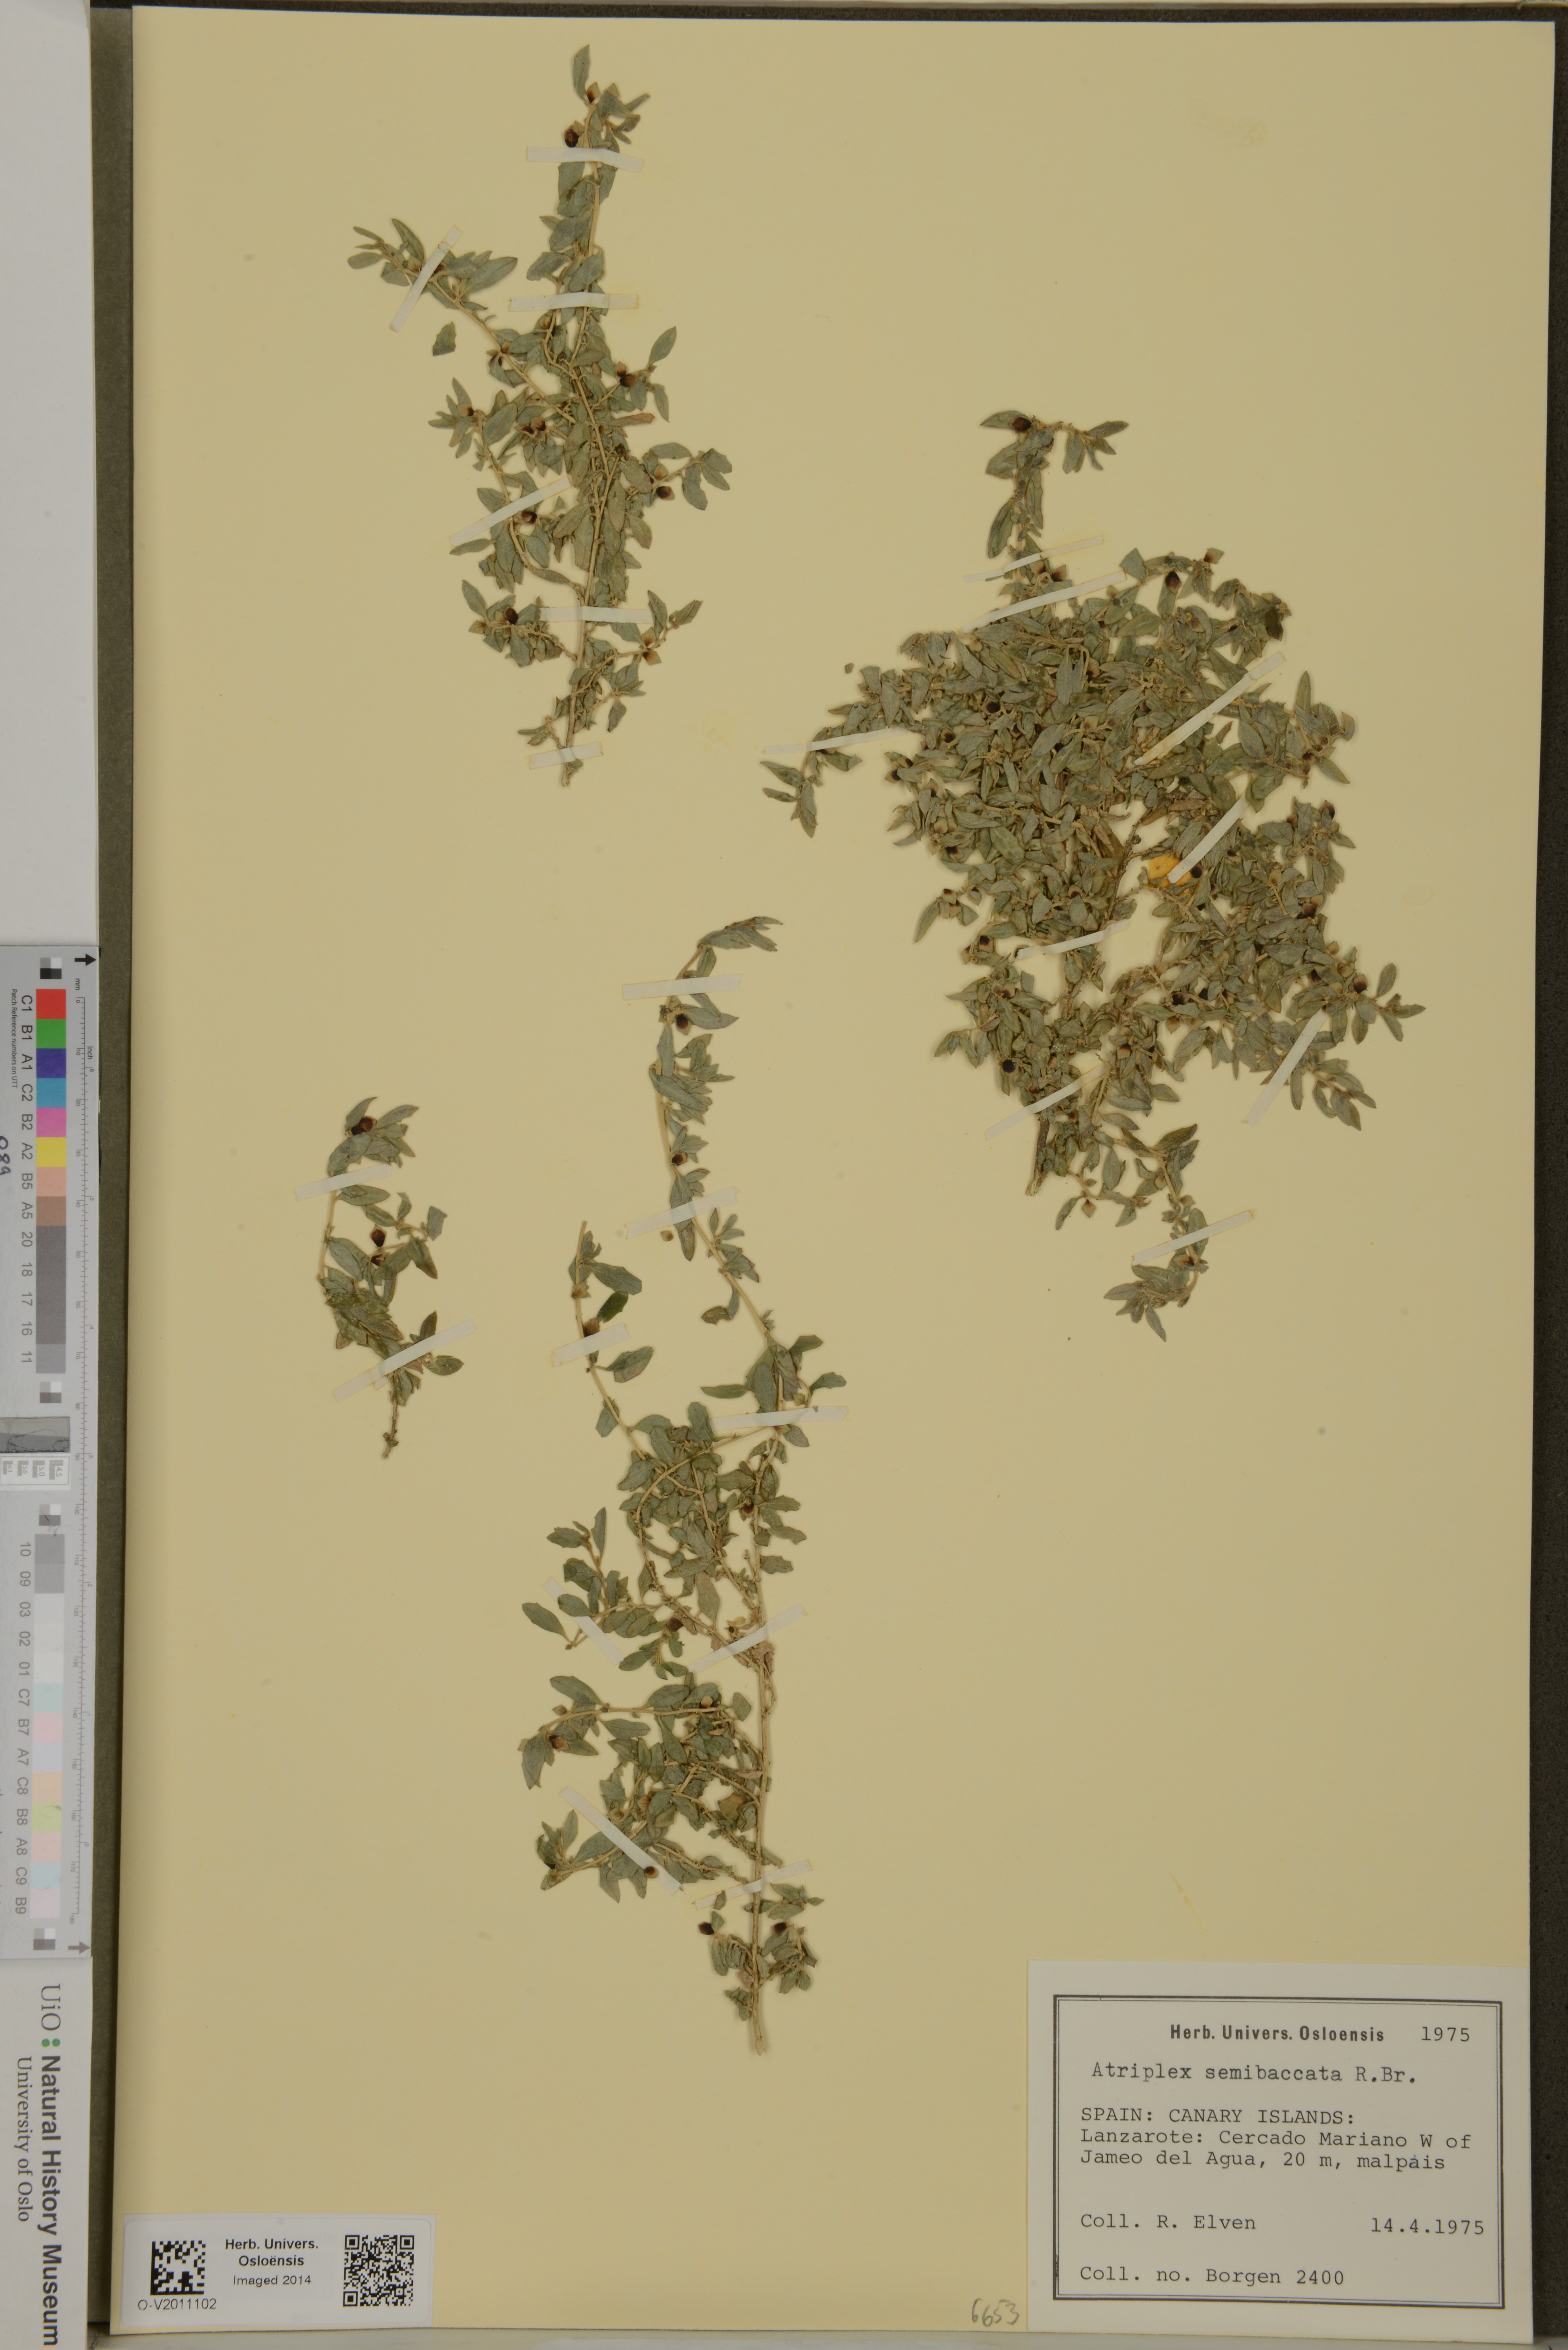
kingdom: Plantae
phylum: Tracheophyta
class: Magnoliopsida
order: Caryophyllales
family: Amaranthaceae
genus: Atriplex
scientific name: Atriplex semibaccata
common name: Australian saltbush
